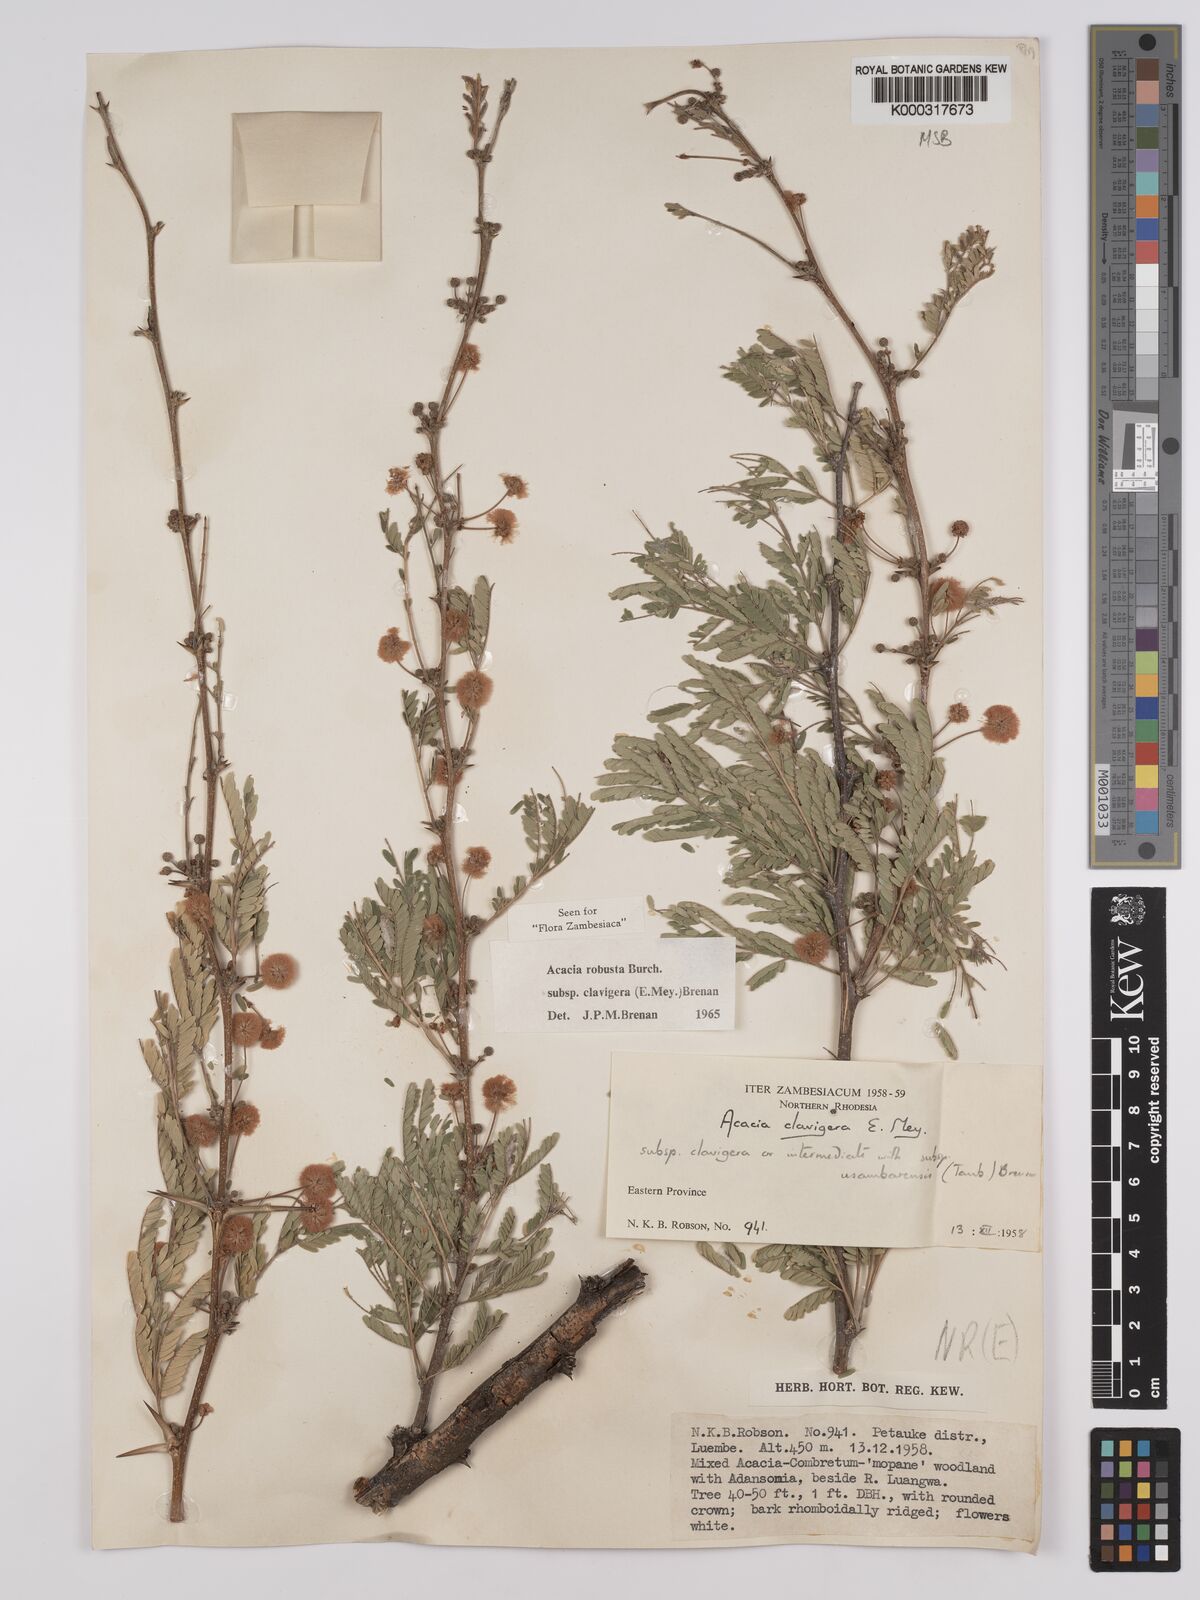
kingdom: Plantae
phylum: Tracheophyta
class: Magnoliopsida
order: Fabales
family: Fabaceae
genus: Vachellia
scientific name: Vachellia robusta
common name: Ankle thorn
